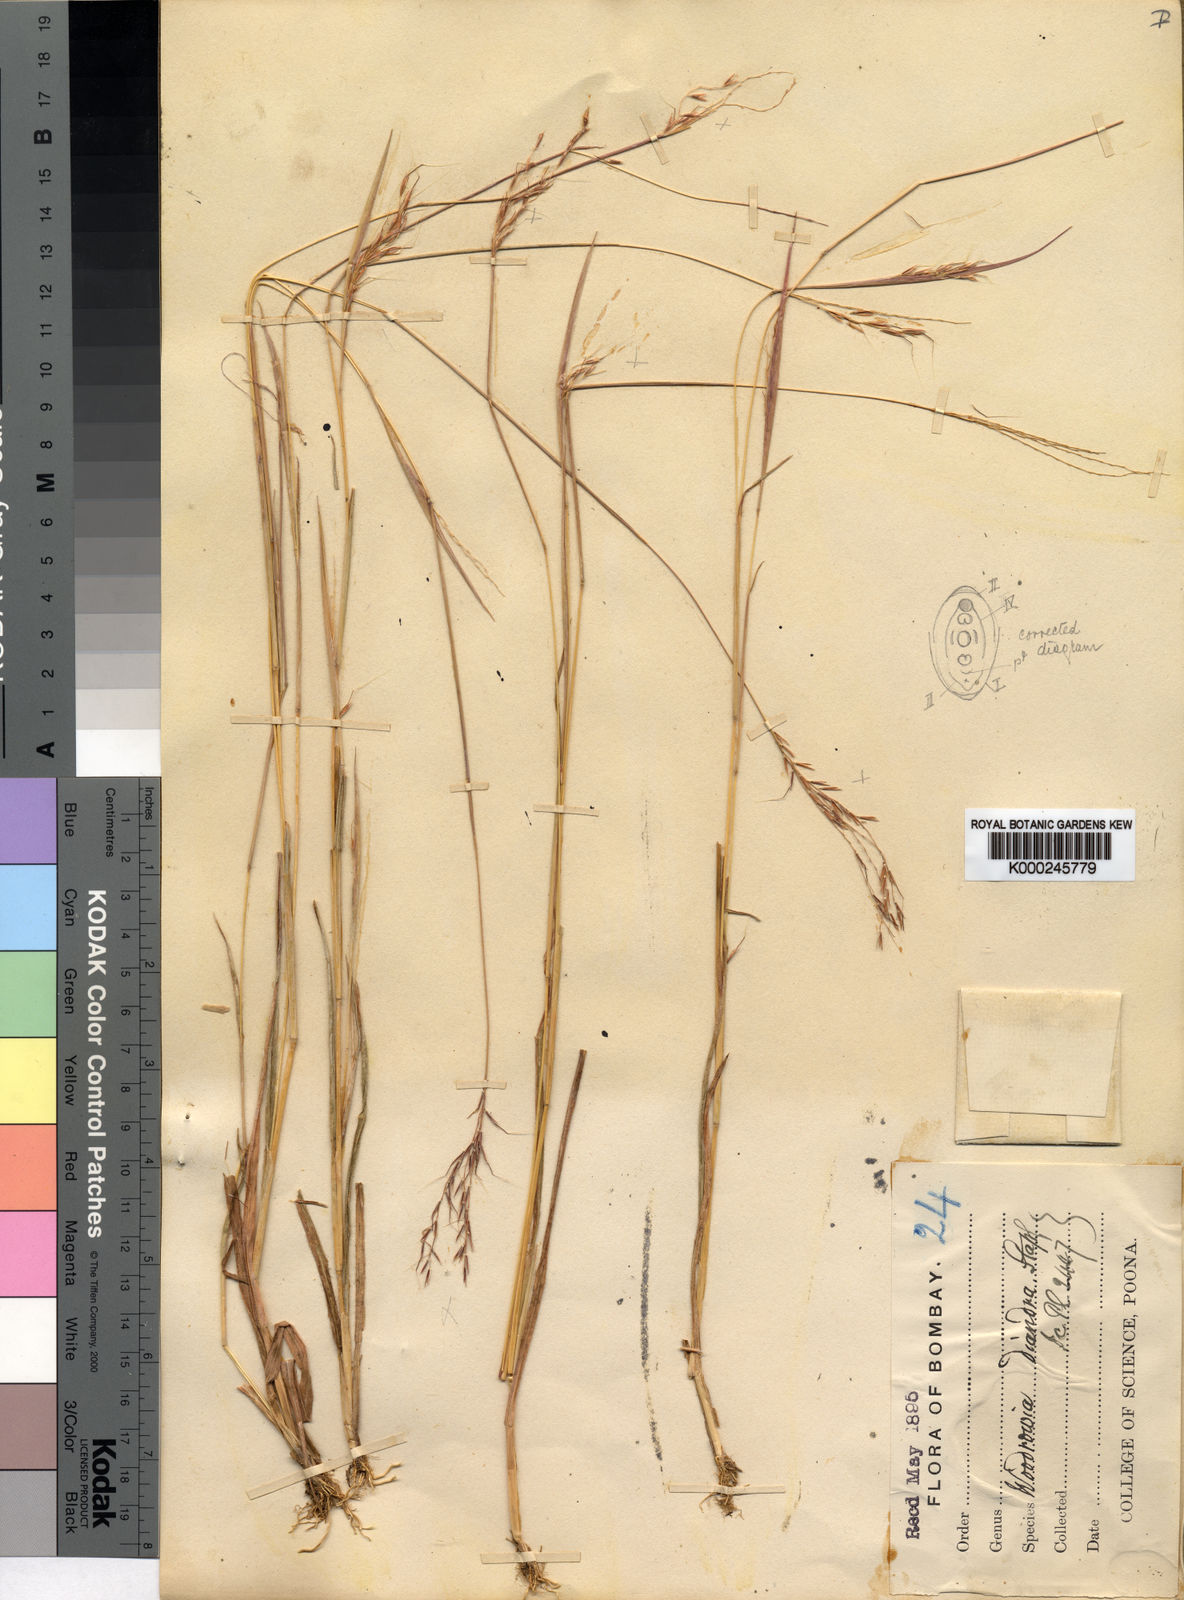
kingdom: Plantae
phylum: Tracheophyta
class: Liliopsida
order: Poales
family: Poaceae
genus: Dimeria
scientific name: Dimeria stapfiana
